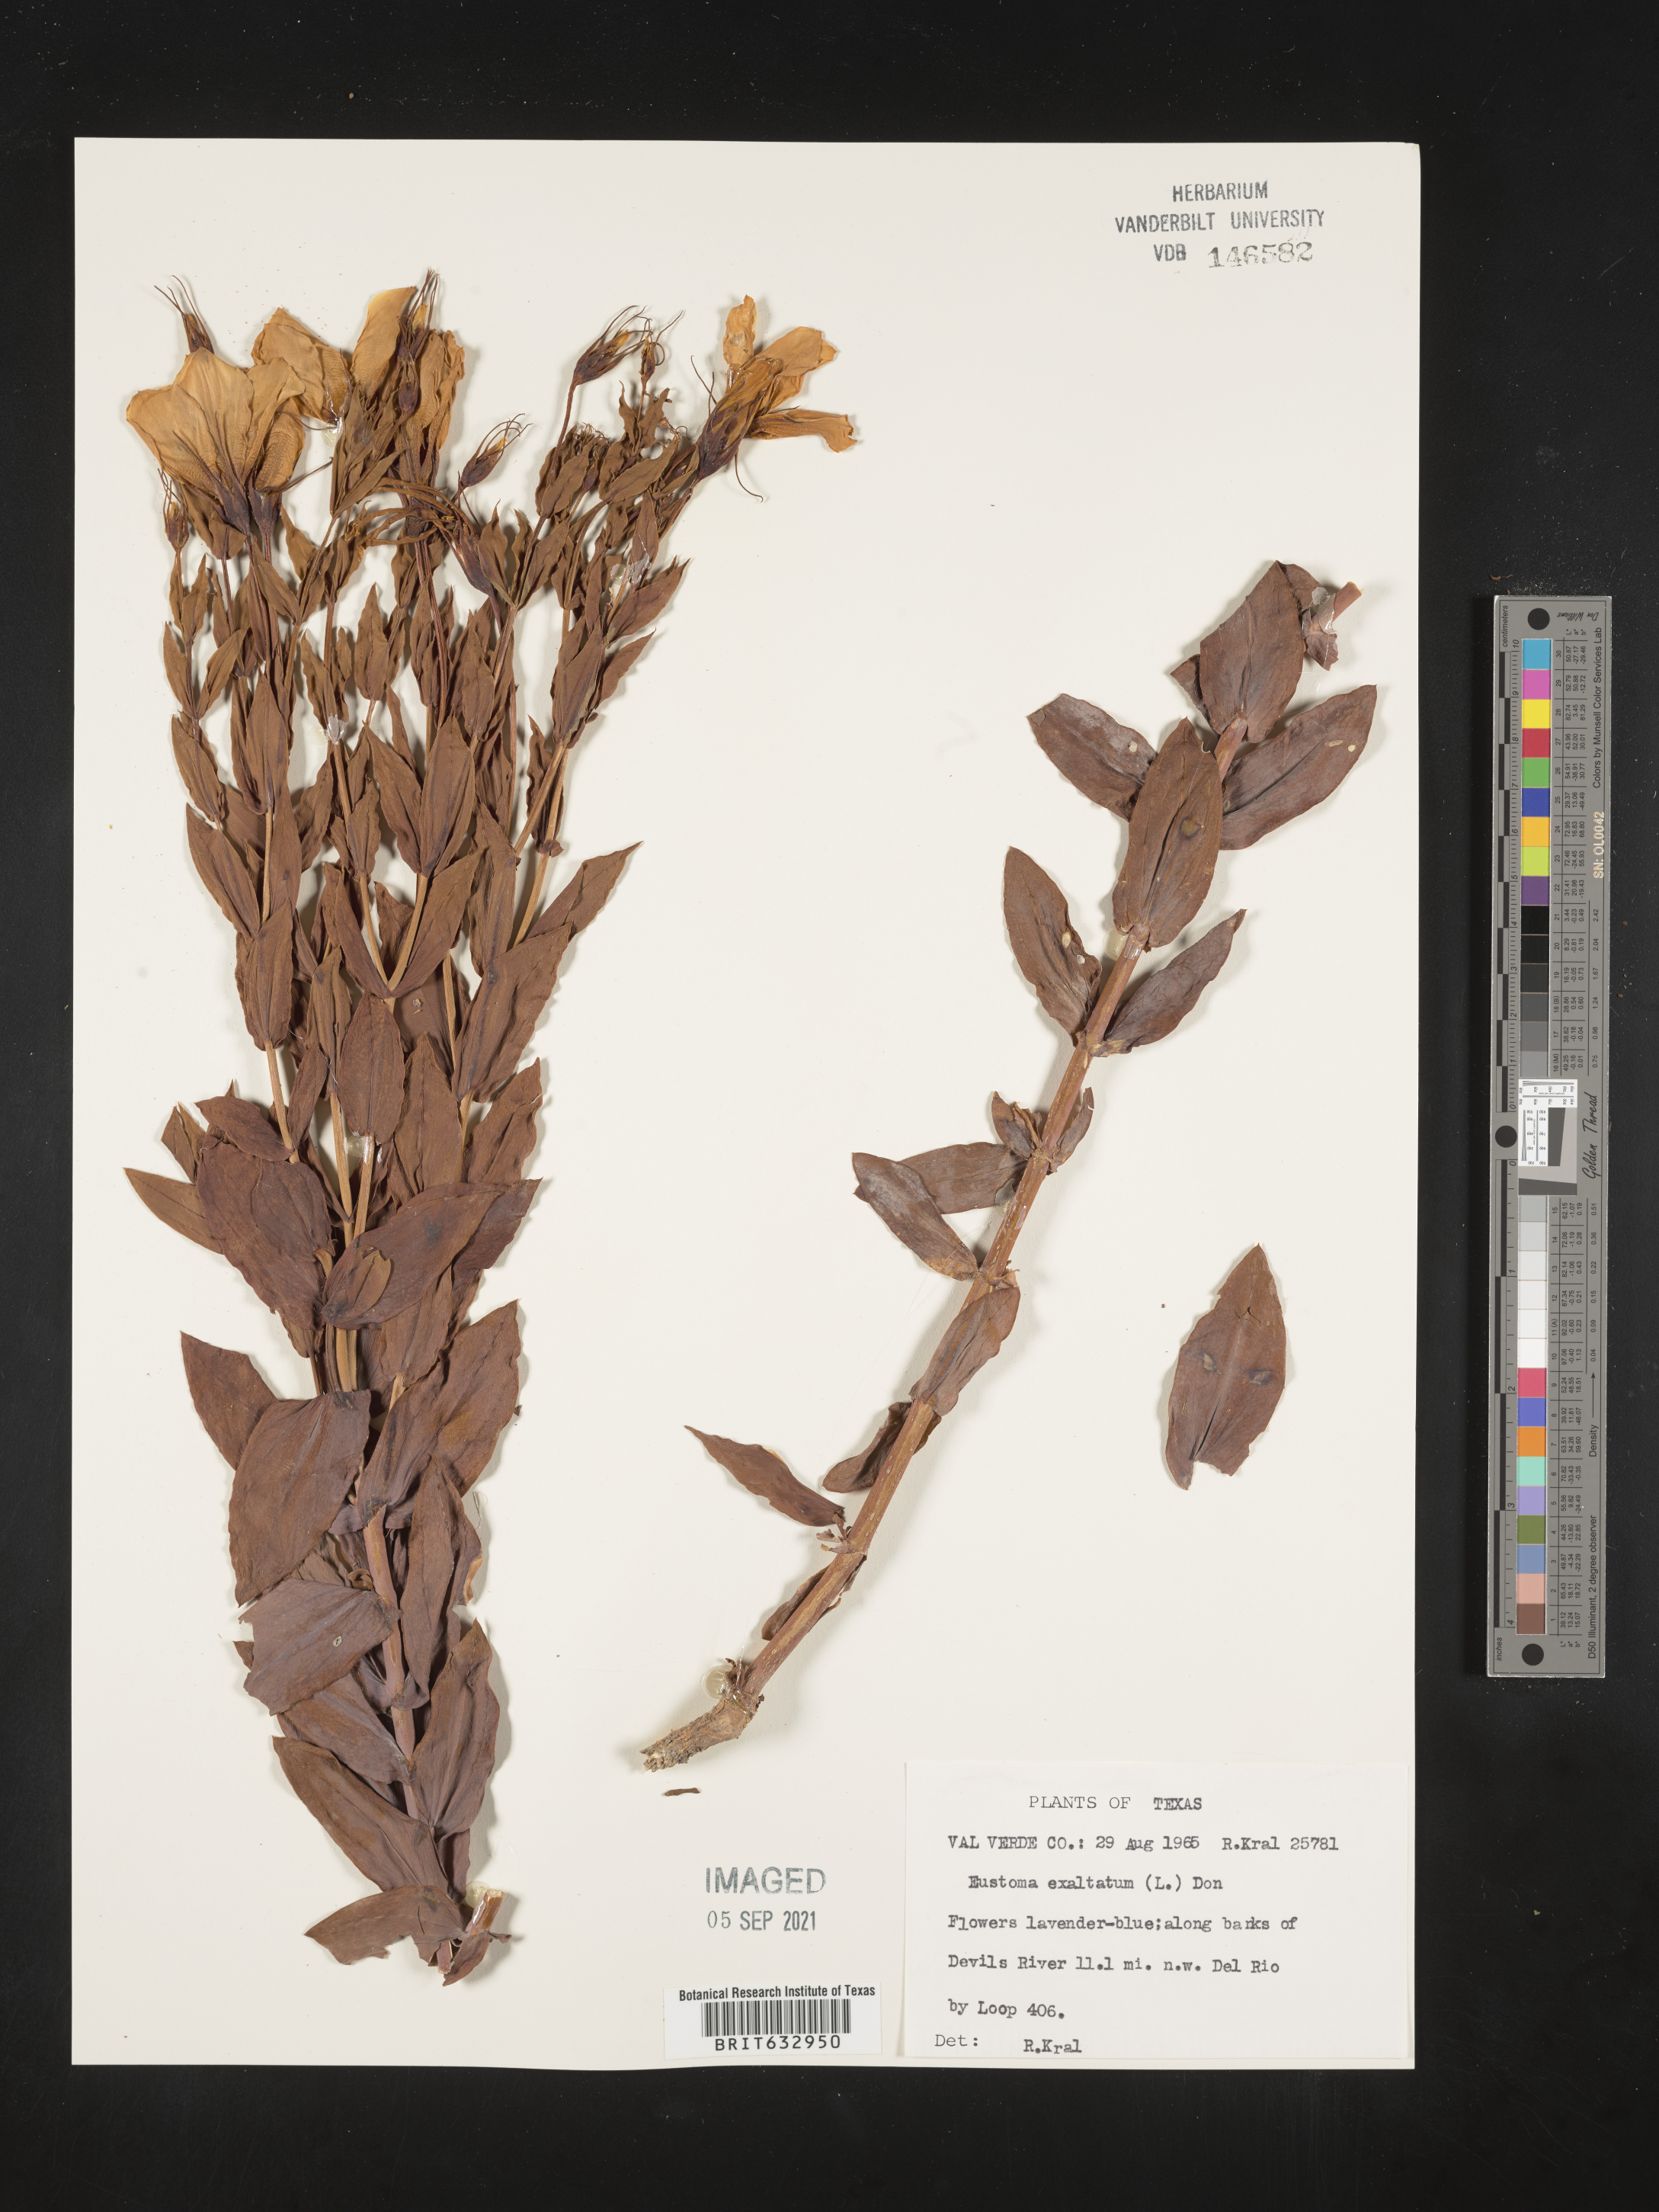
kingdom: Plantae
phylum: Tracheophyta
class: Magnoliopsida
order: Gentianales
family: Gentianaceae
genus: Eustoma
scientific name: Eustoma exaltatum
